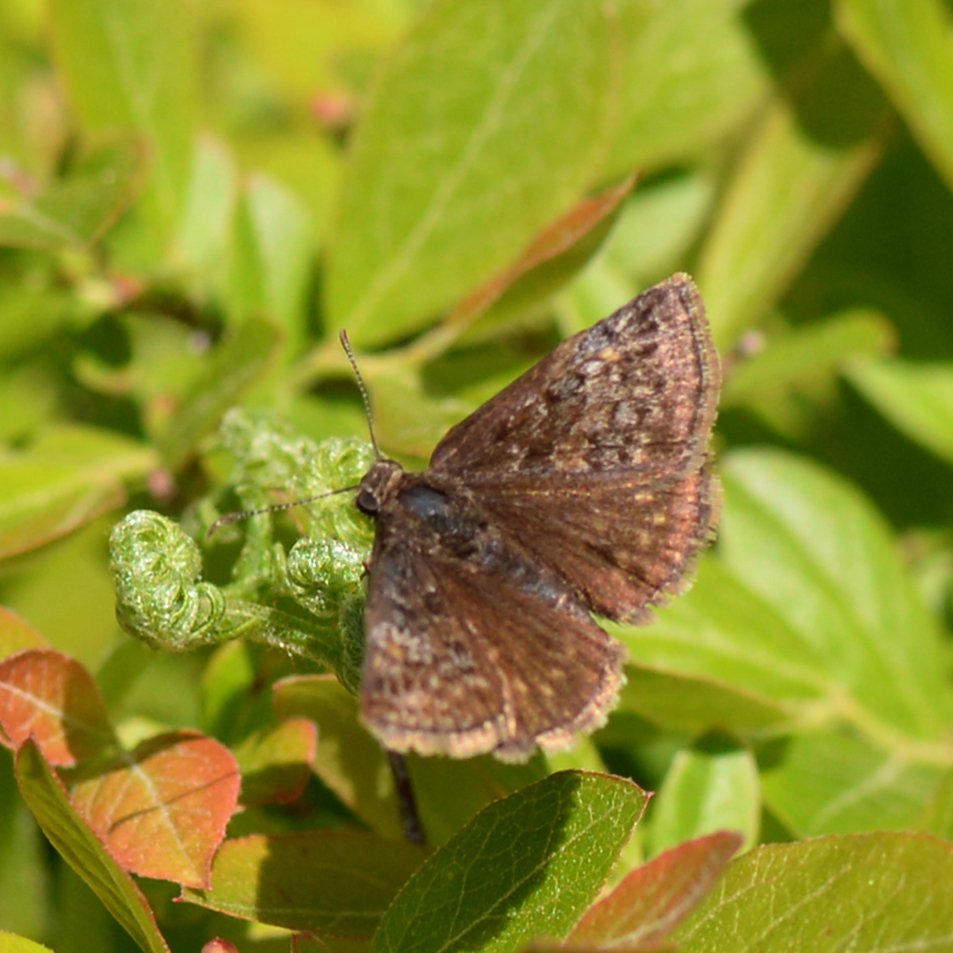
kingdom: Animalia
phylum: Arthropoda
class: Insecta
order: Lepidoptera
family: Hesperiidae
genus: Erynnis
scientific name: Erynnis icelus
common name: Dreamy Duskywing
